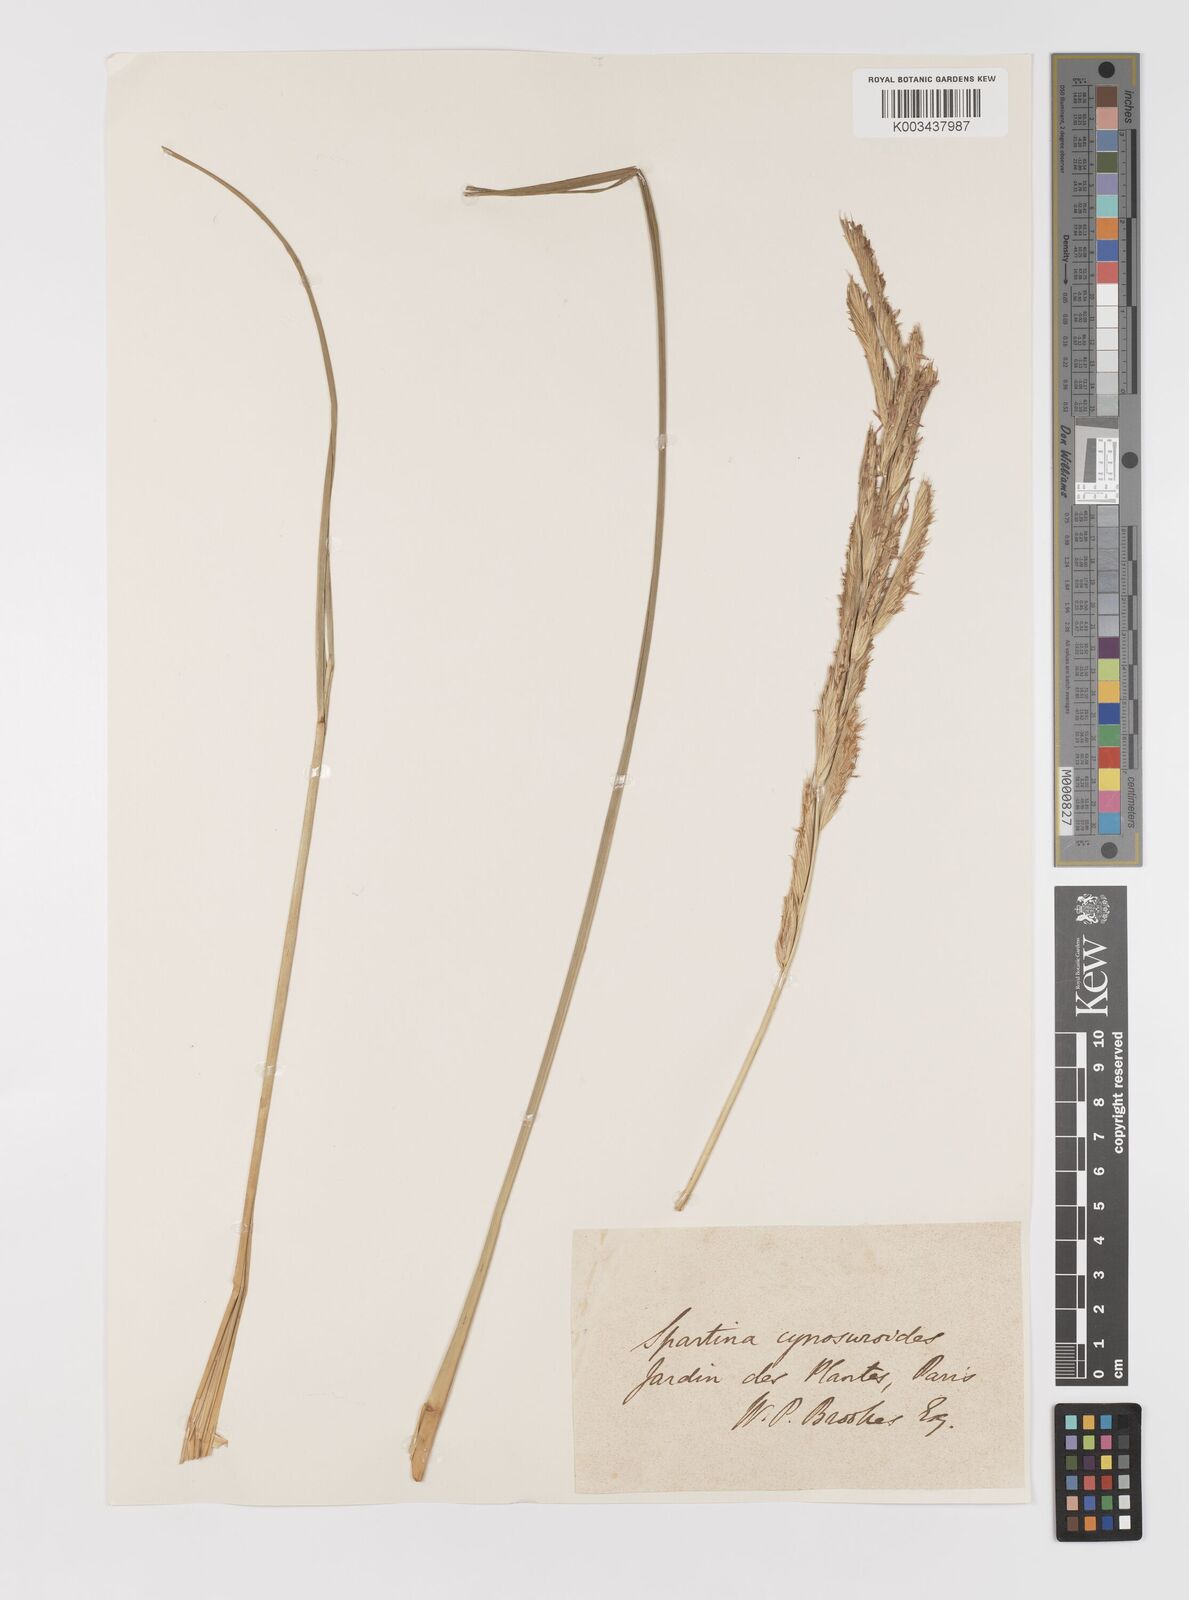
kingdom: Plantae
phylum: Tracheophyta
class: Liliopsida
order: Poales
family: Poaceae
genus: Sporobolus
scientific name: Sporobolus cynosuroides
